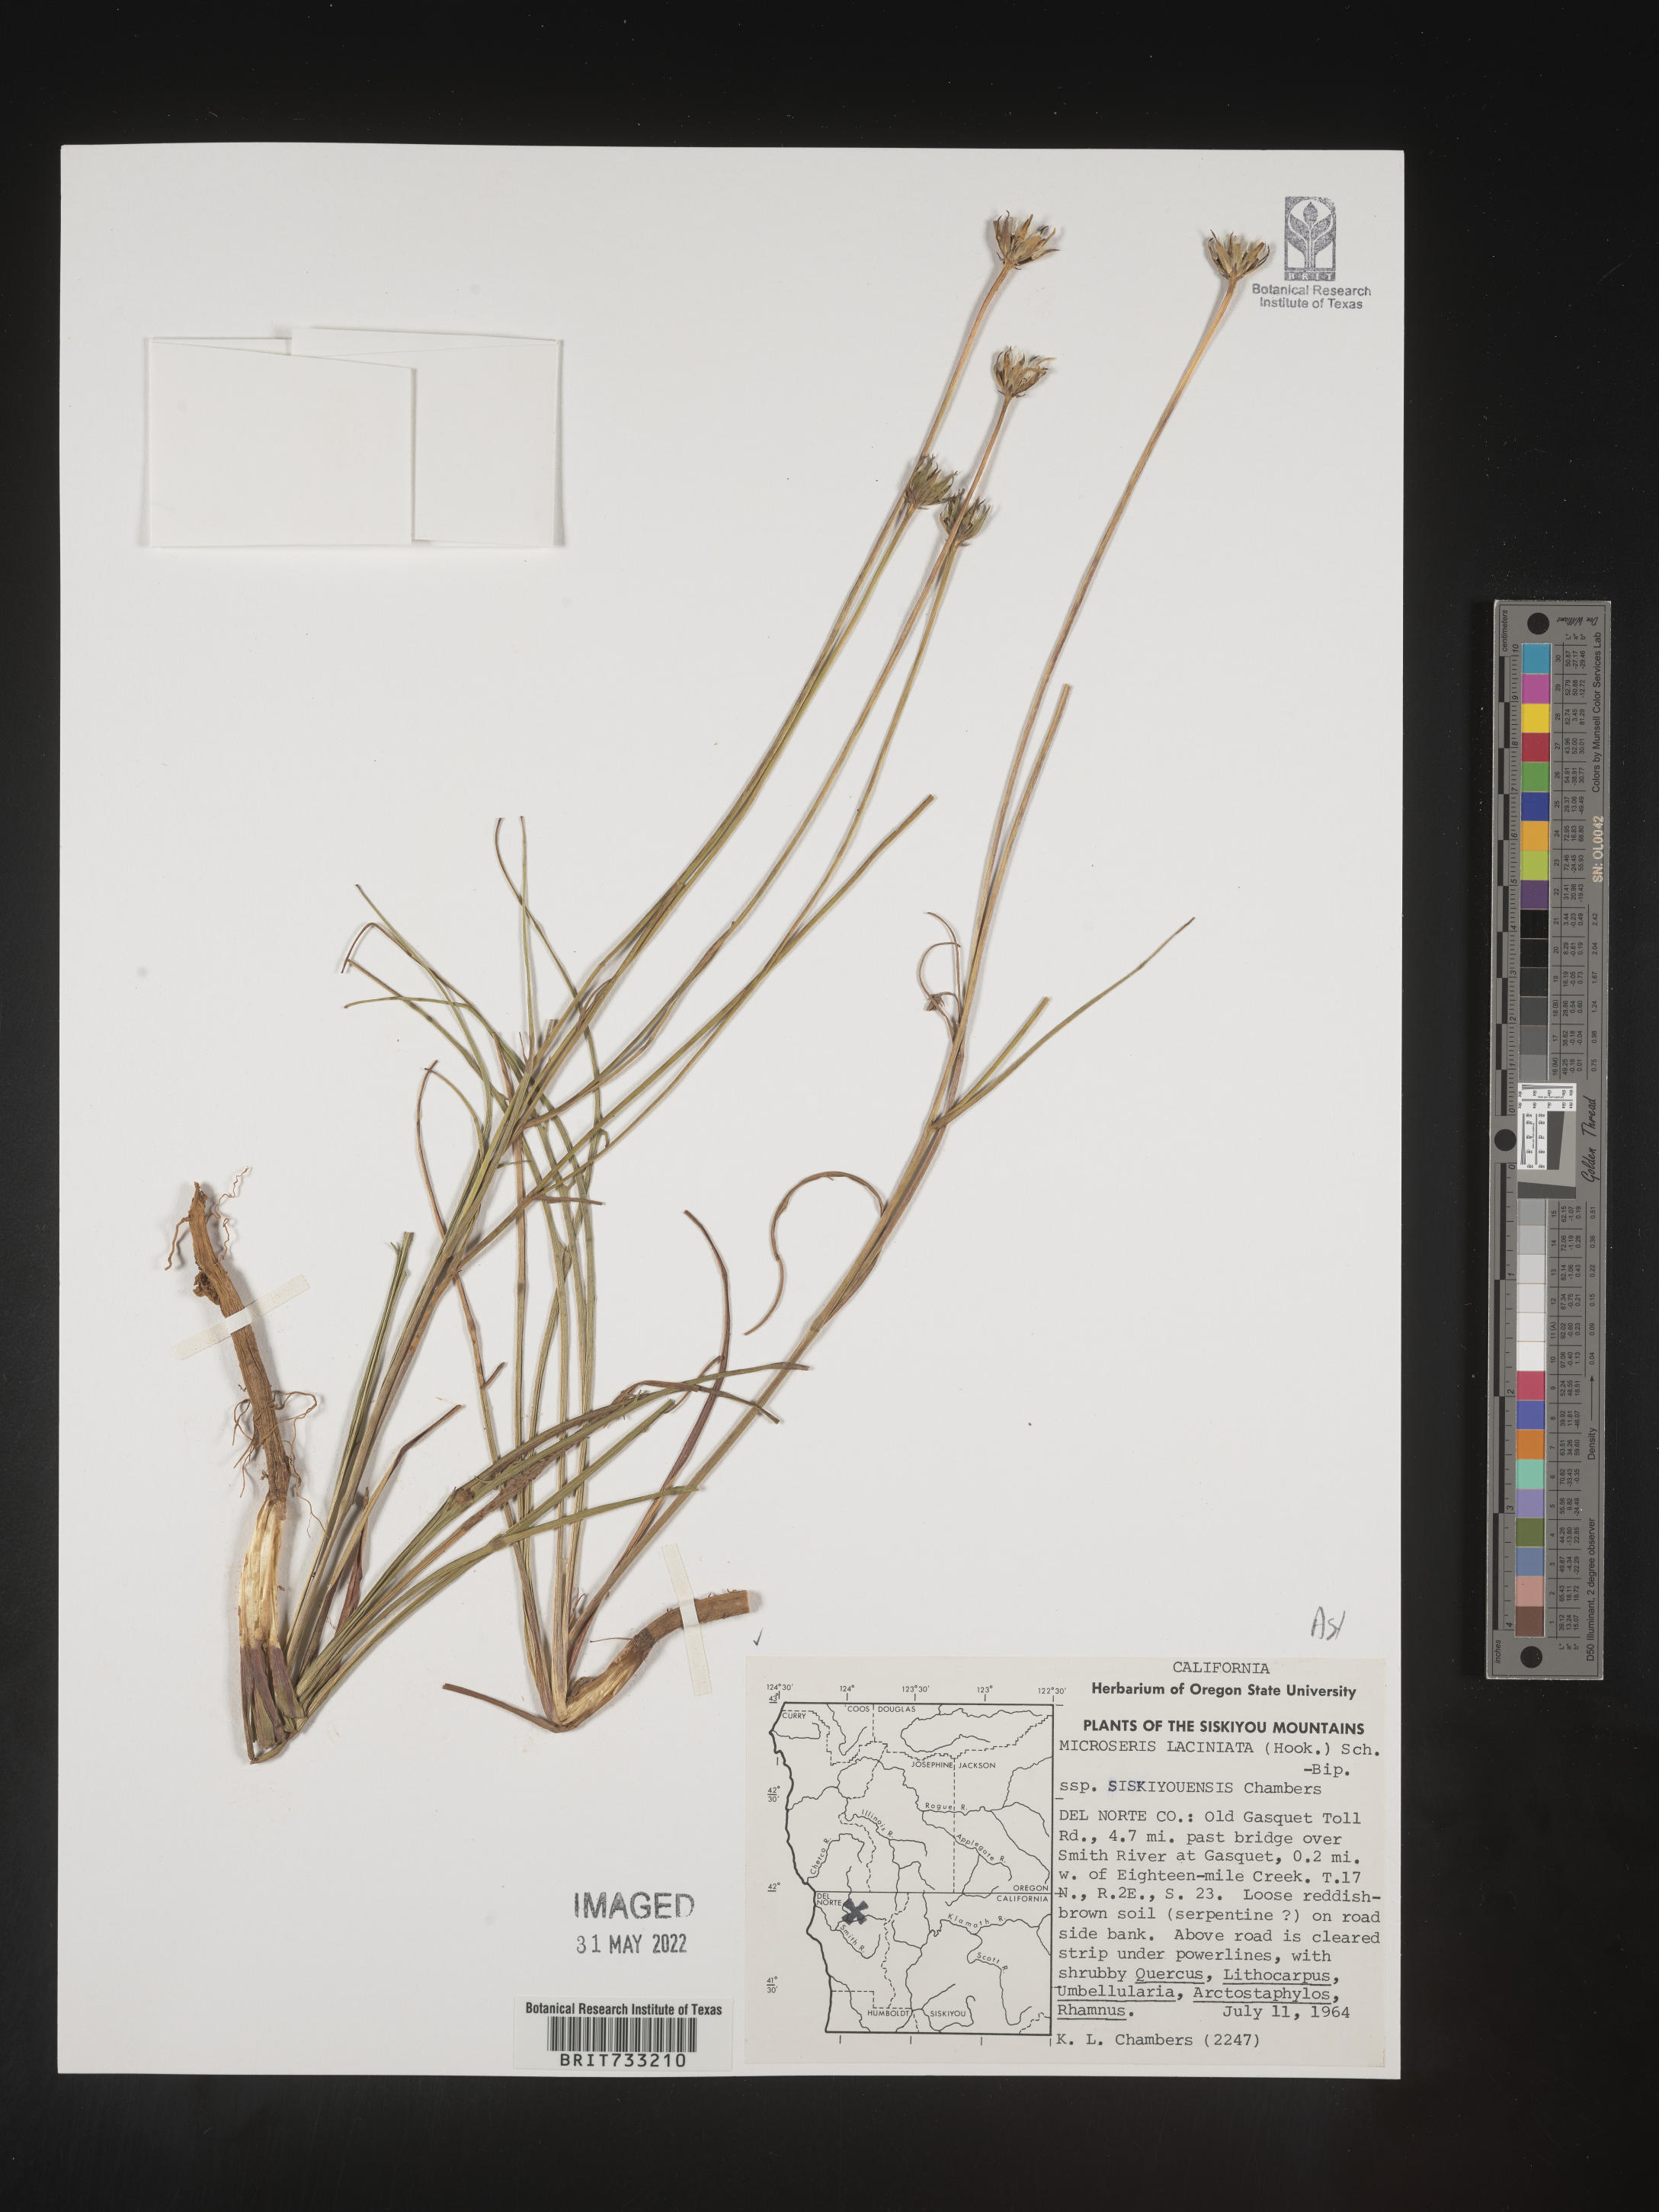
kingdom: Plantae
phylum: Tracheophyta
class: Magnoliopsida
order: Asterales
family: Asteraceae
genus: Microseris
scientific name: Microseris
